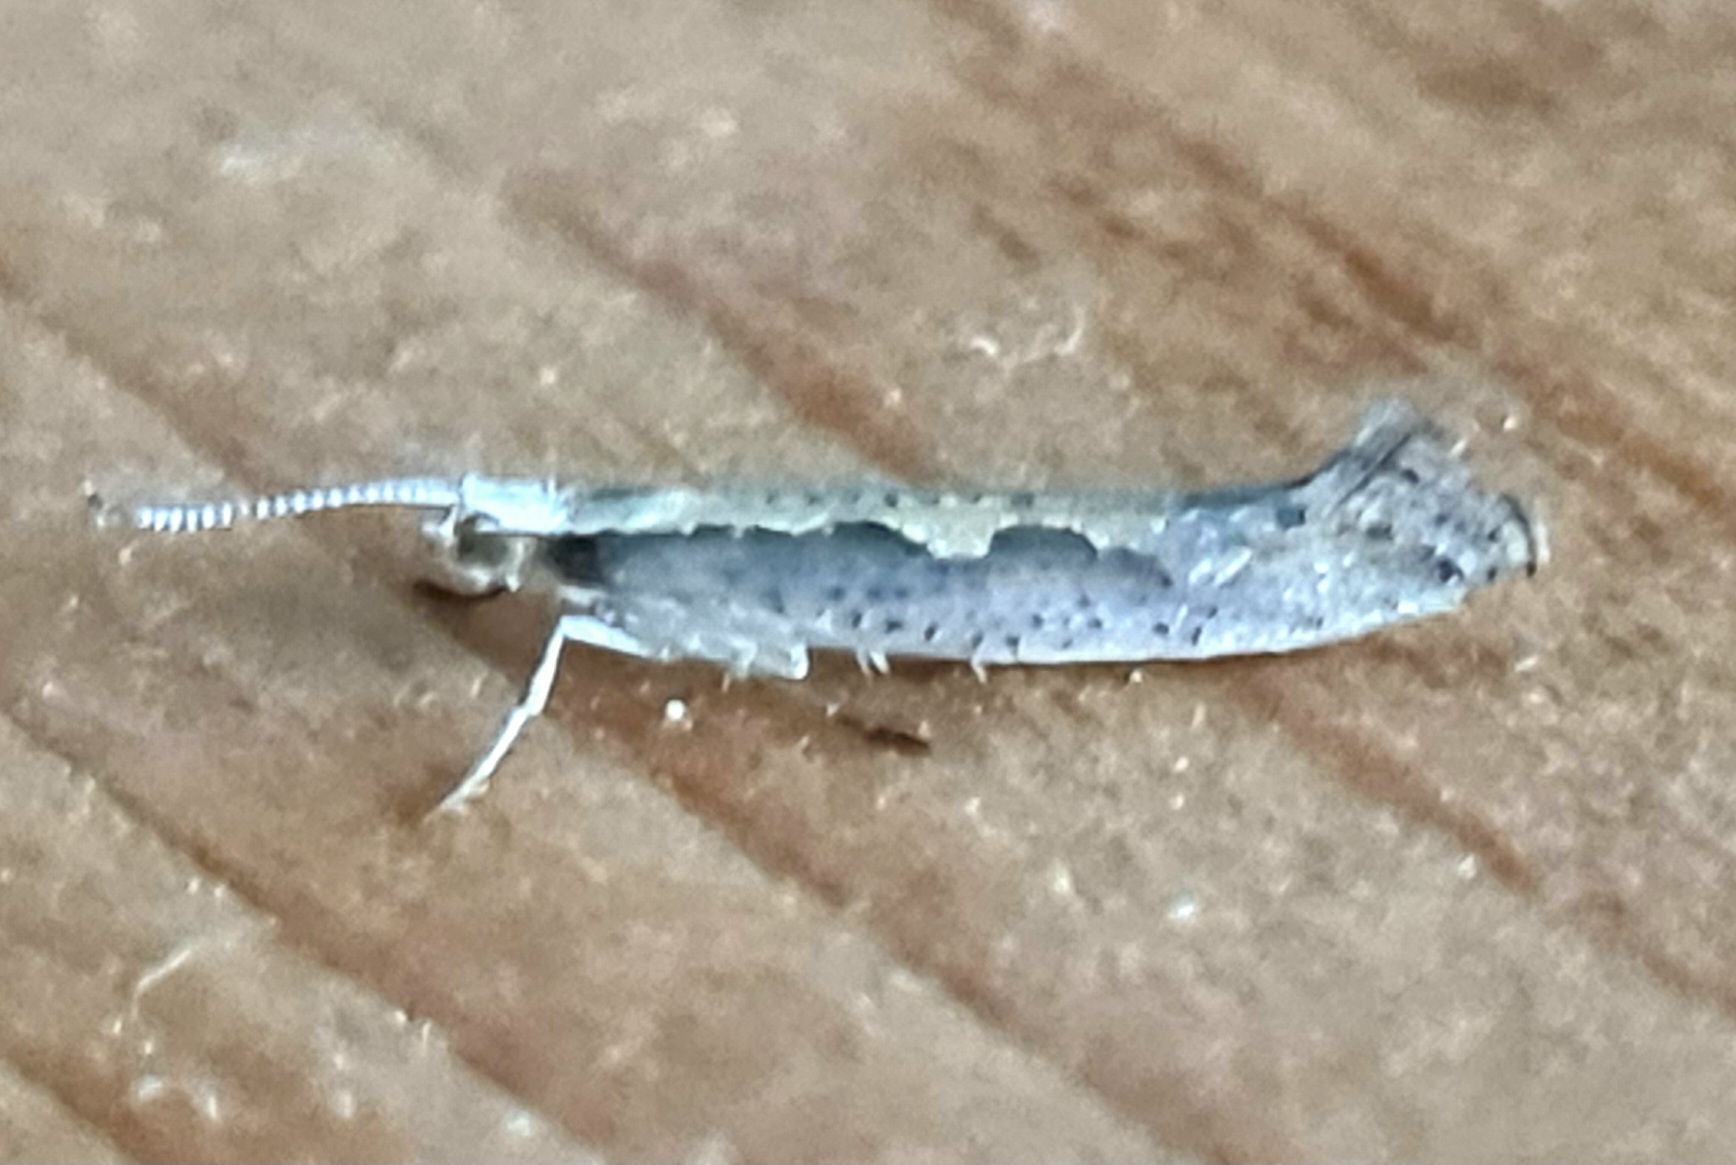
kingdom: Animalia
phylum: Arthropoda
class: Insecta
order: Lepidoptera
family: Plutellidae
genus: Plutella
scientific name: Plutella xylostella
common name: Kålmøl
